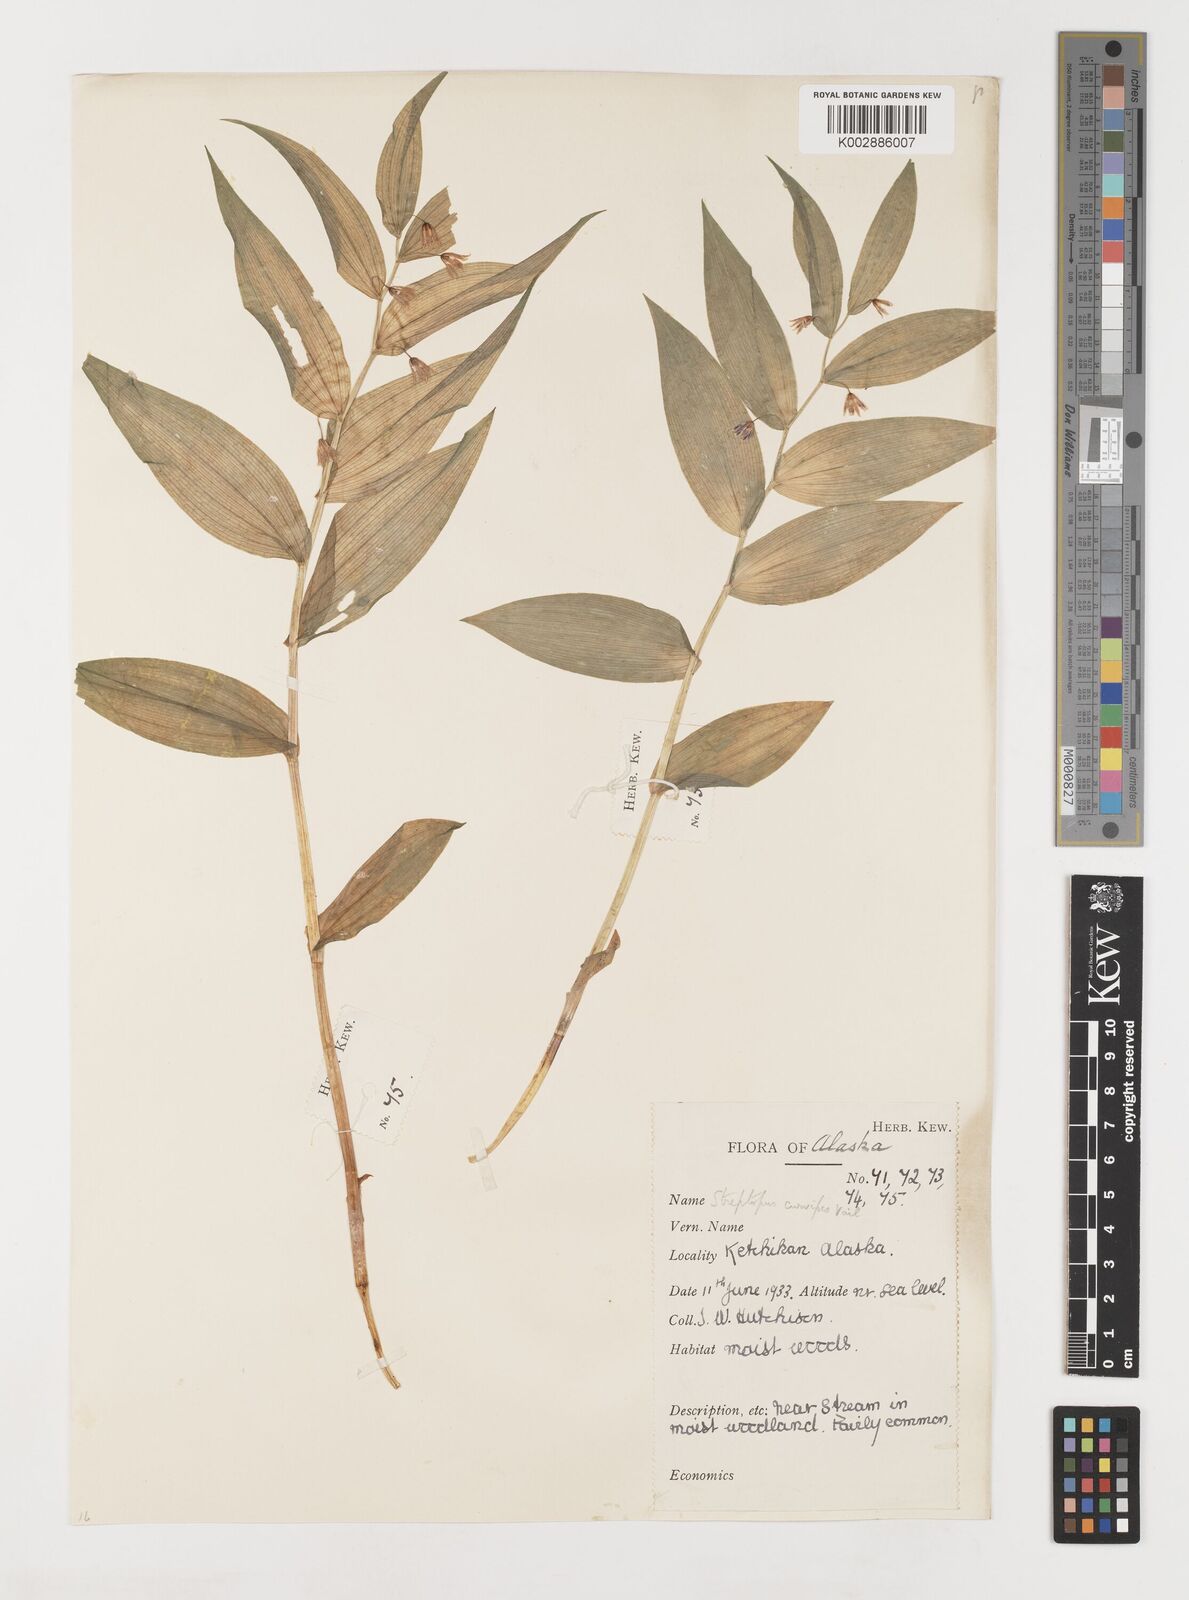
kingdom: Plantae
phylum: Tracheophyta
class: Liliopsida
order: Liliales
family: Liliaceae
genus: Streptopus
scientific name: Streptopus lanceolatus
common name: Rose mandarin
